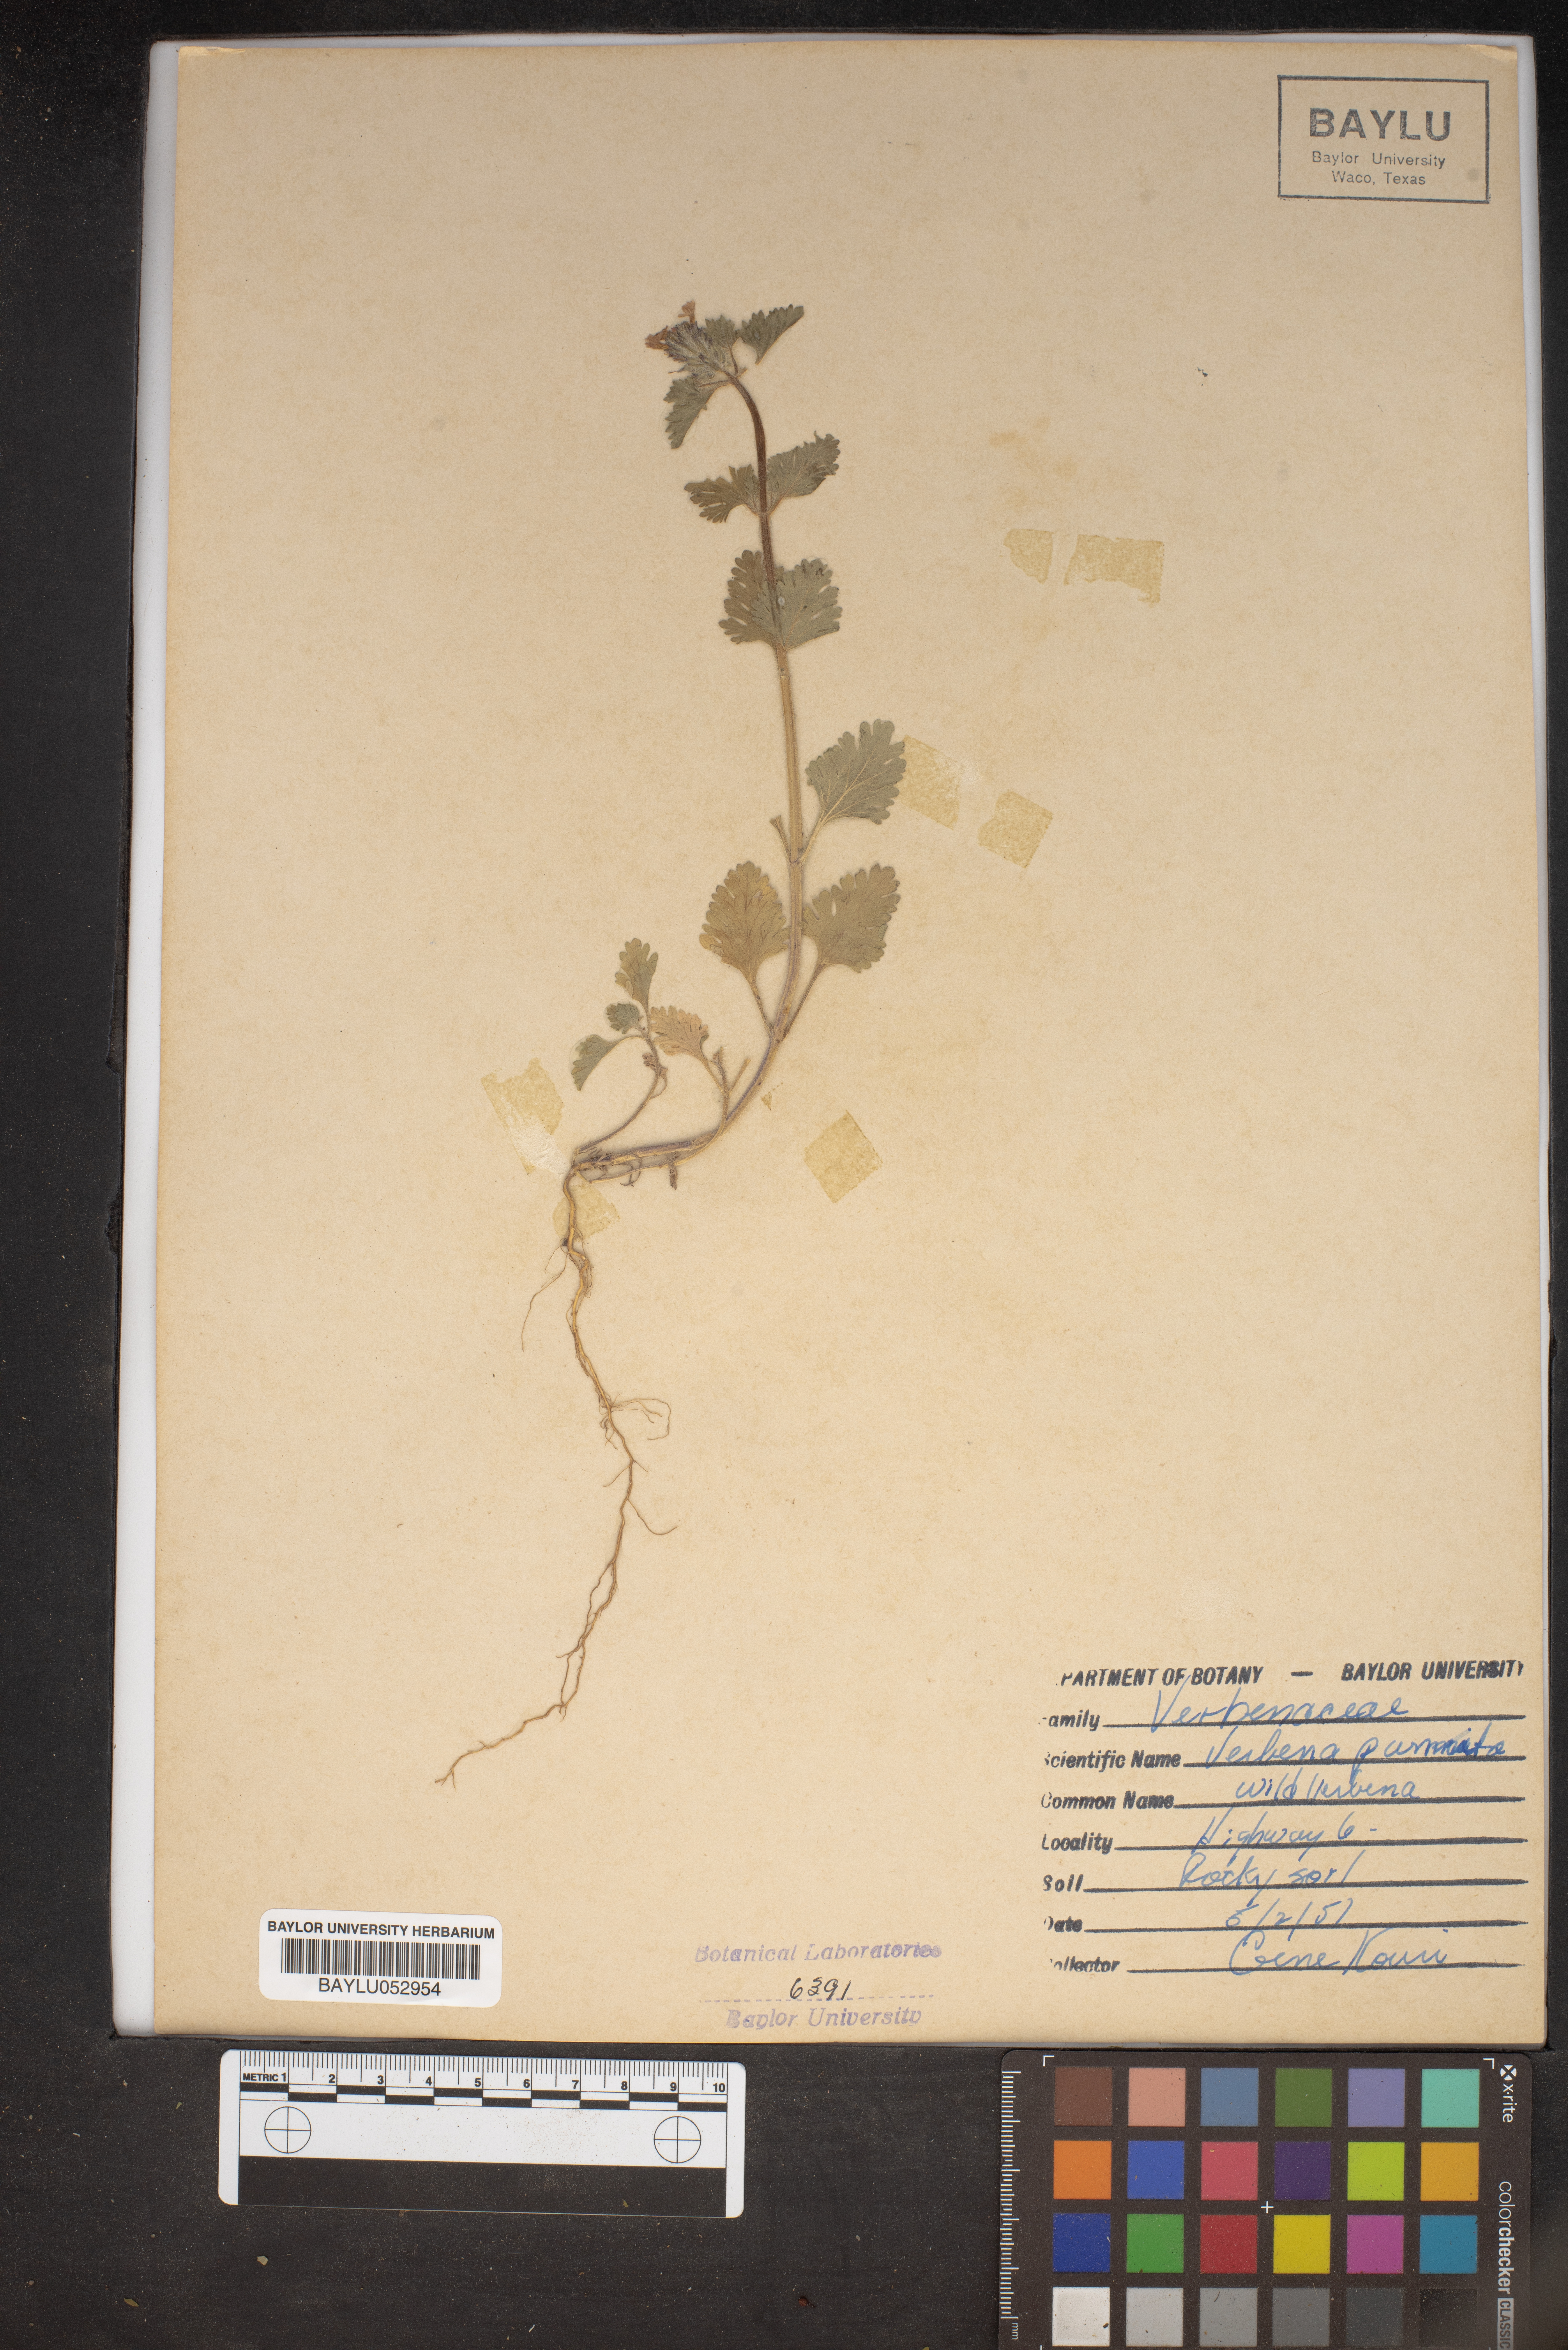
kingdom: Plantae
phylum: Tracheophyta
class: Magnoliopsida
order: Lamiales
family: Verbenaceae
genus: Verbena
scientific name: Verbena pumila
